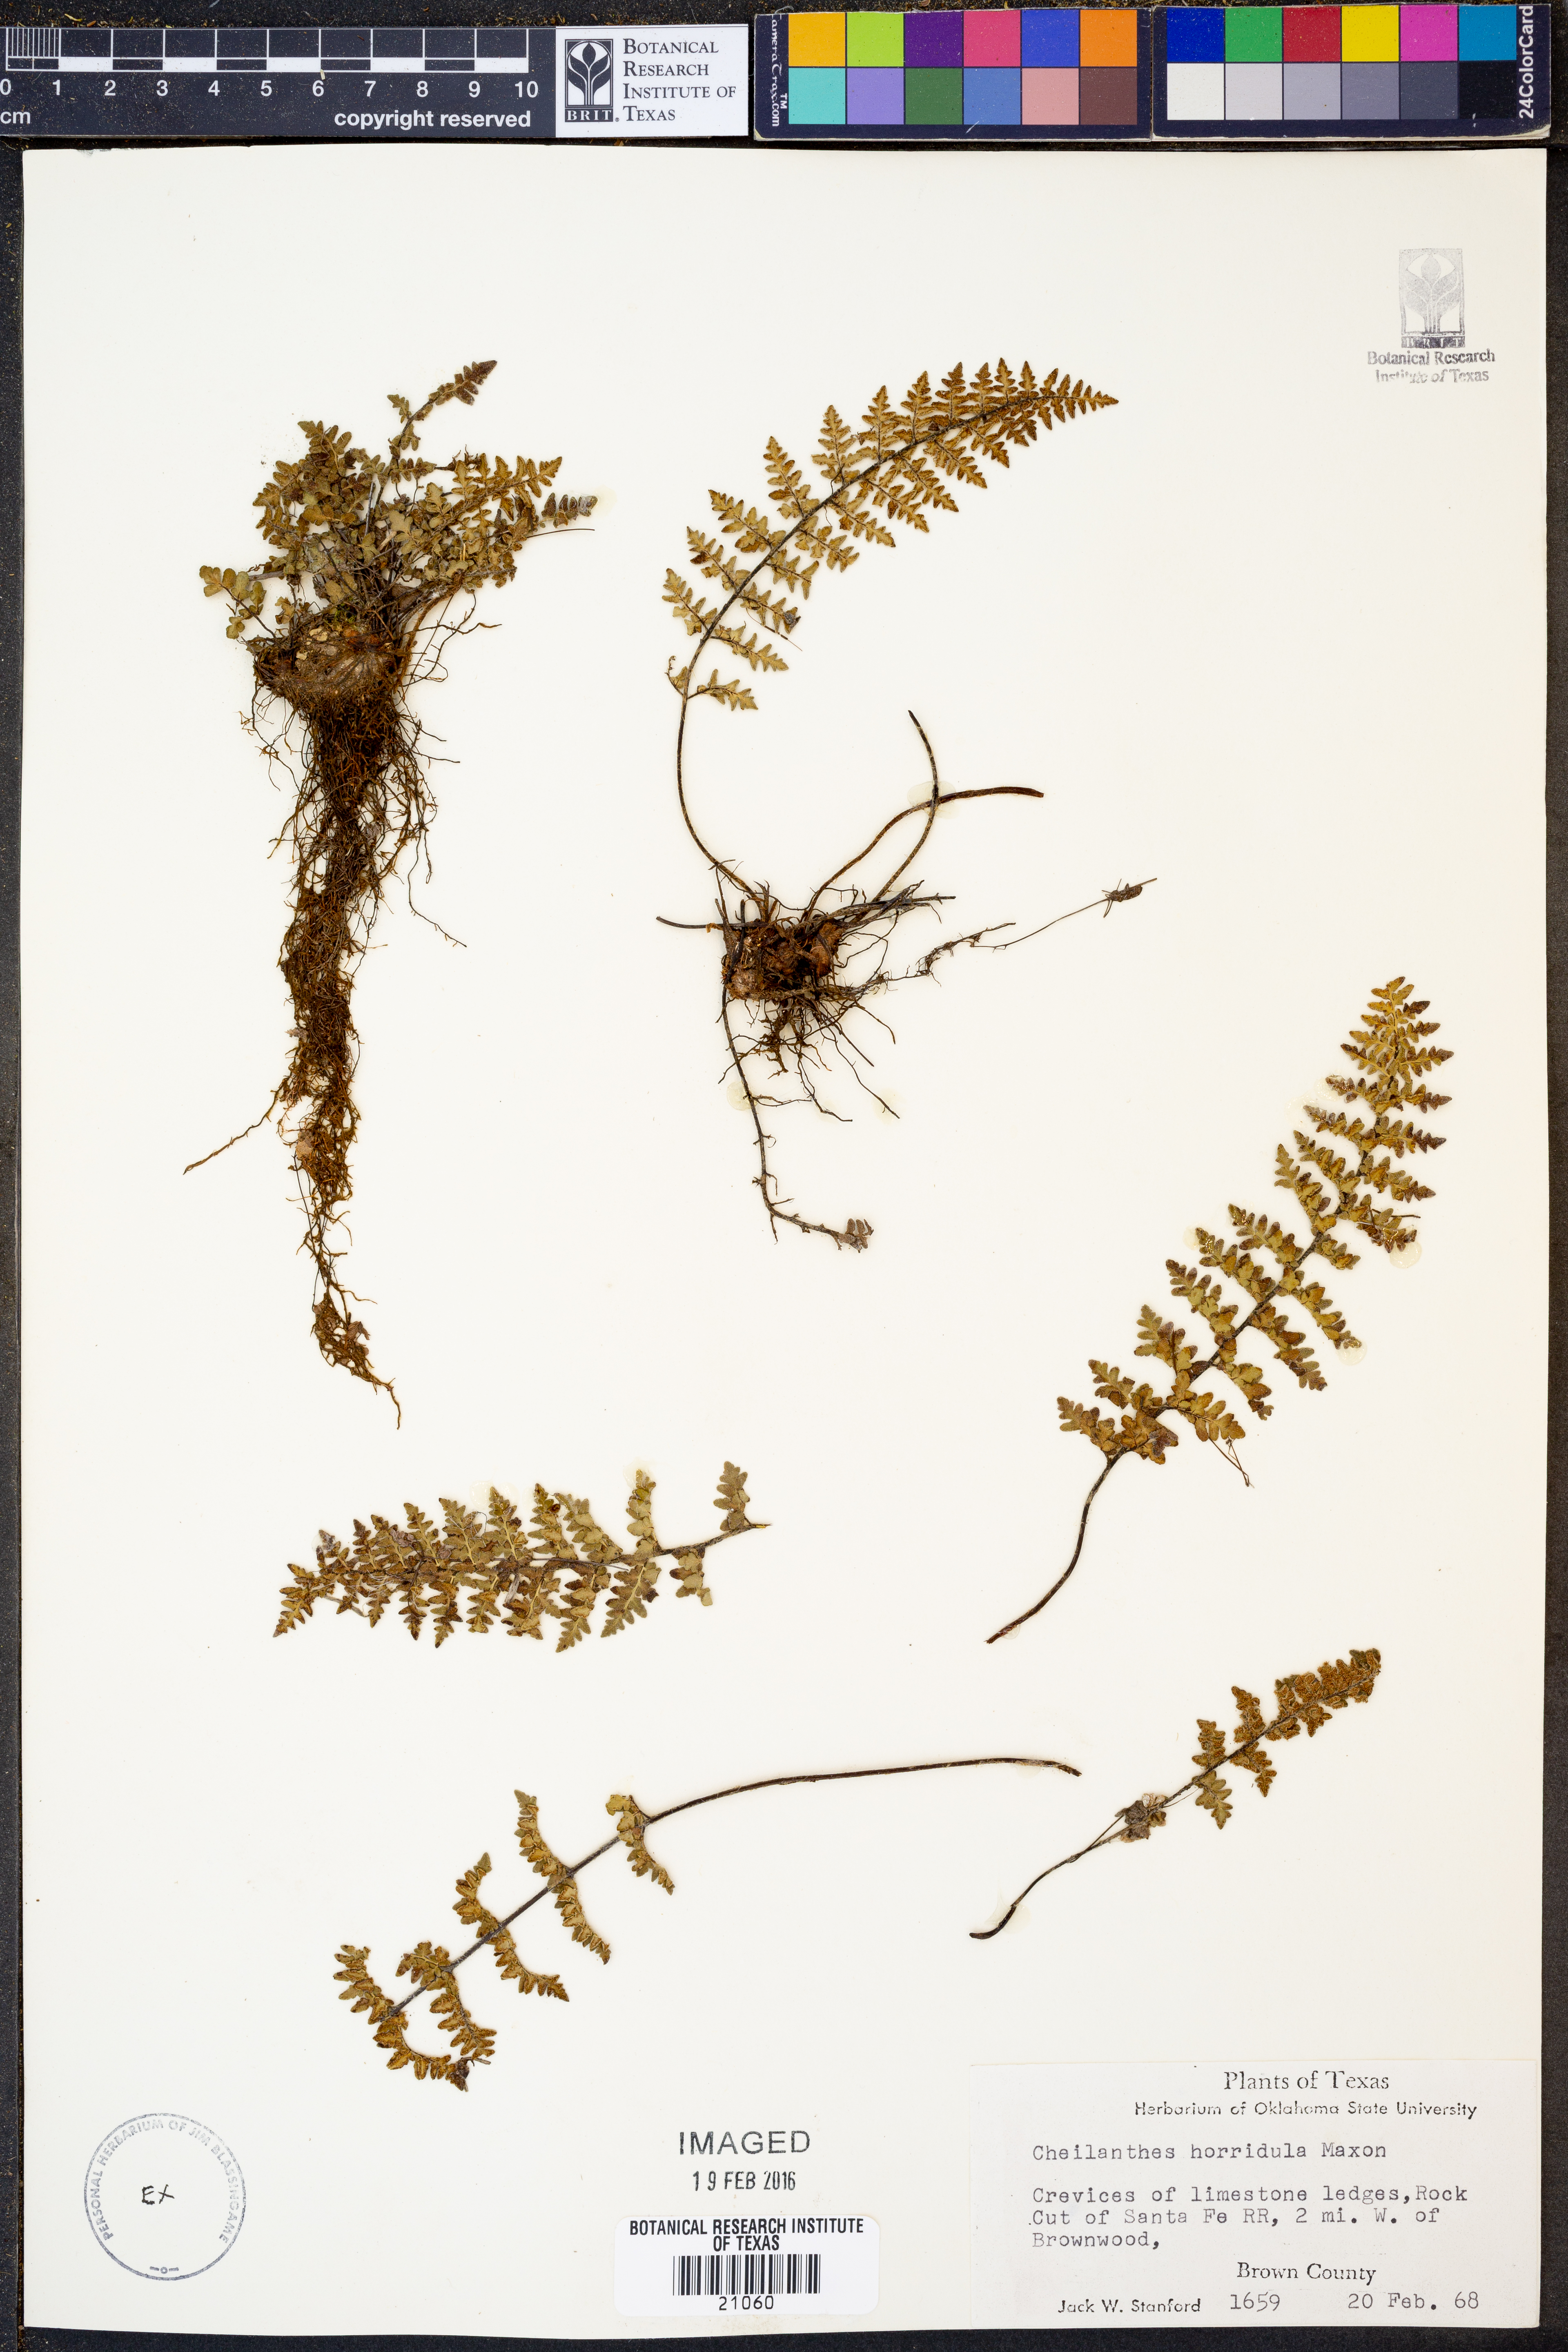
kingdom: Plantae
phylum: Tracheophyta
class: Polypodiopsida
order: Polypodiales
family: Pteridaceae
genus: Myriopteris
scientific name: Myriopteris scabra
